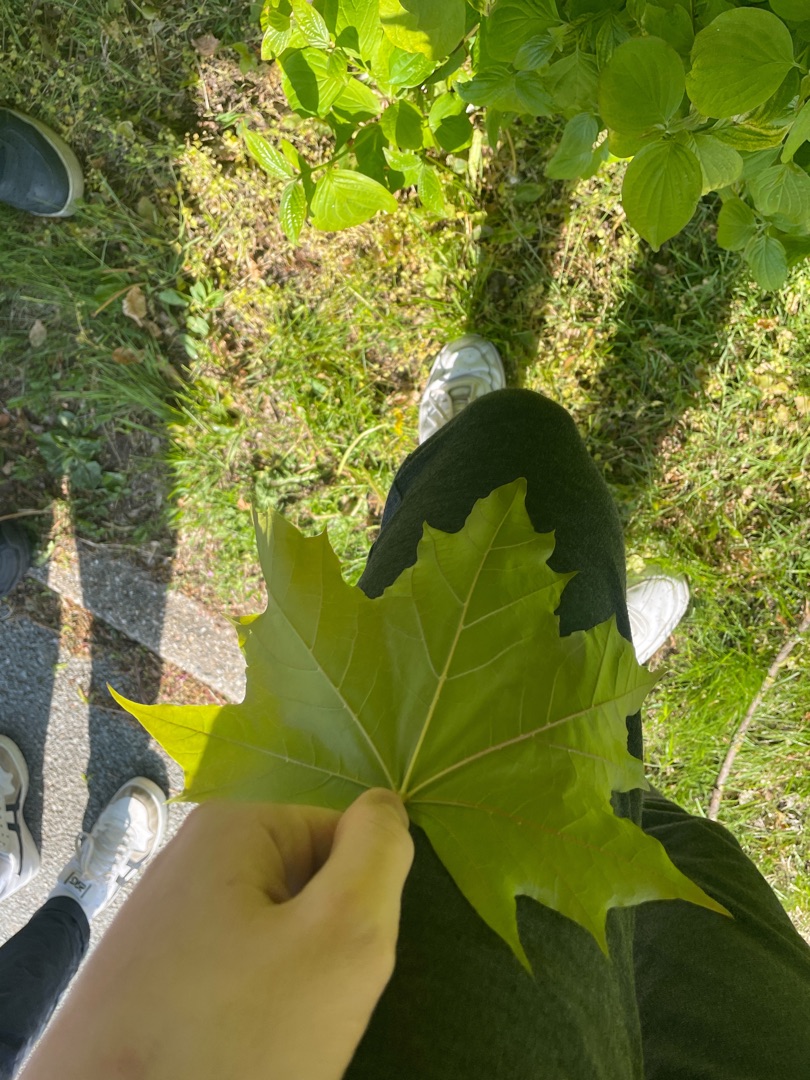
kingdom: Plantae
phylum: Tracheophyta
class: Magnoliopsida
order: Sapindales
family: Sapindaceae
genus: Acer
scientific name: Acer platanoides
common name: Spids-løn
